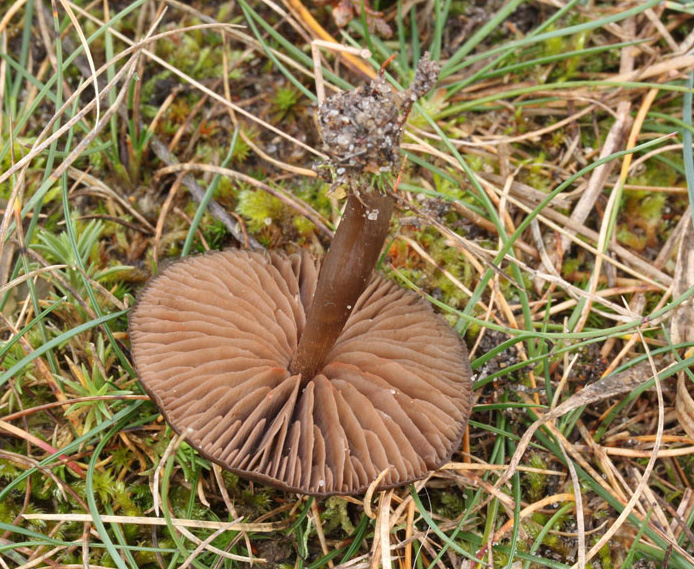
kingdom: Fungi
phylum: Basidiomycota
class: Agaricomycetes
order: Agaricales
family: Entolomataceae
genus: Entoloma
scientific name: Entoloma vindobonense
